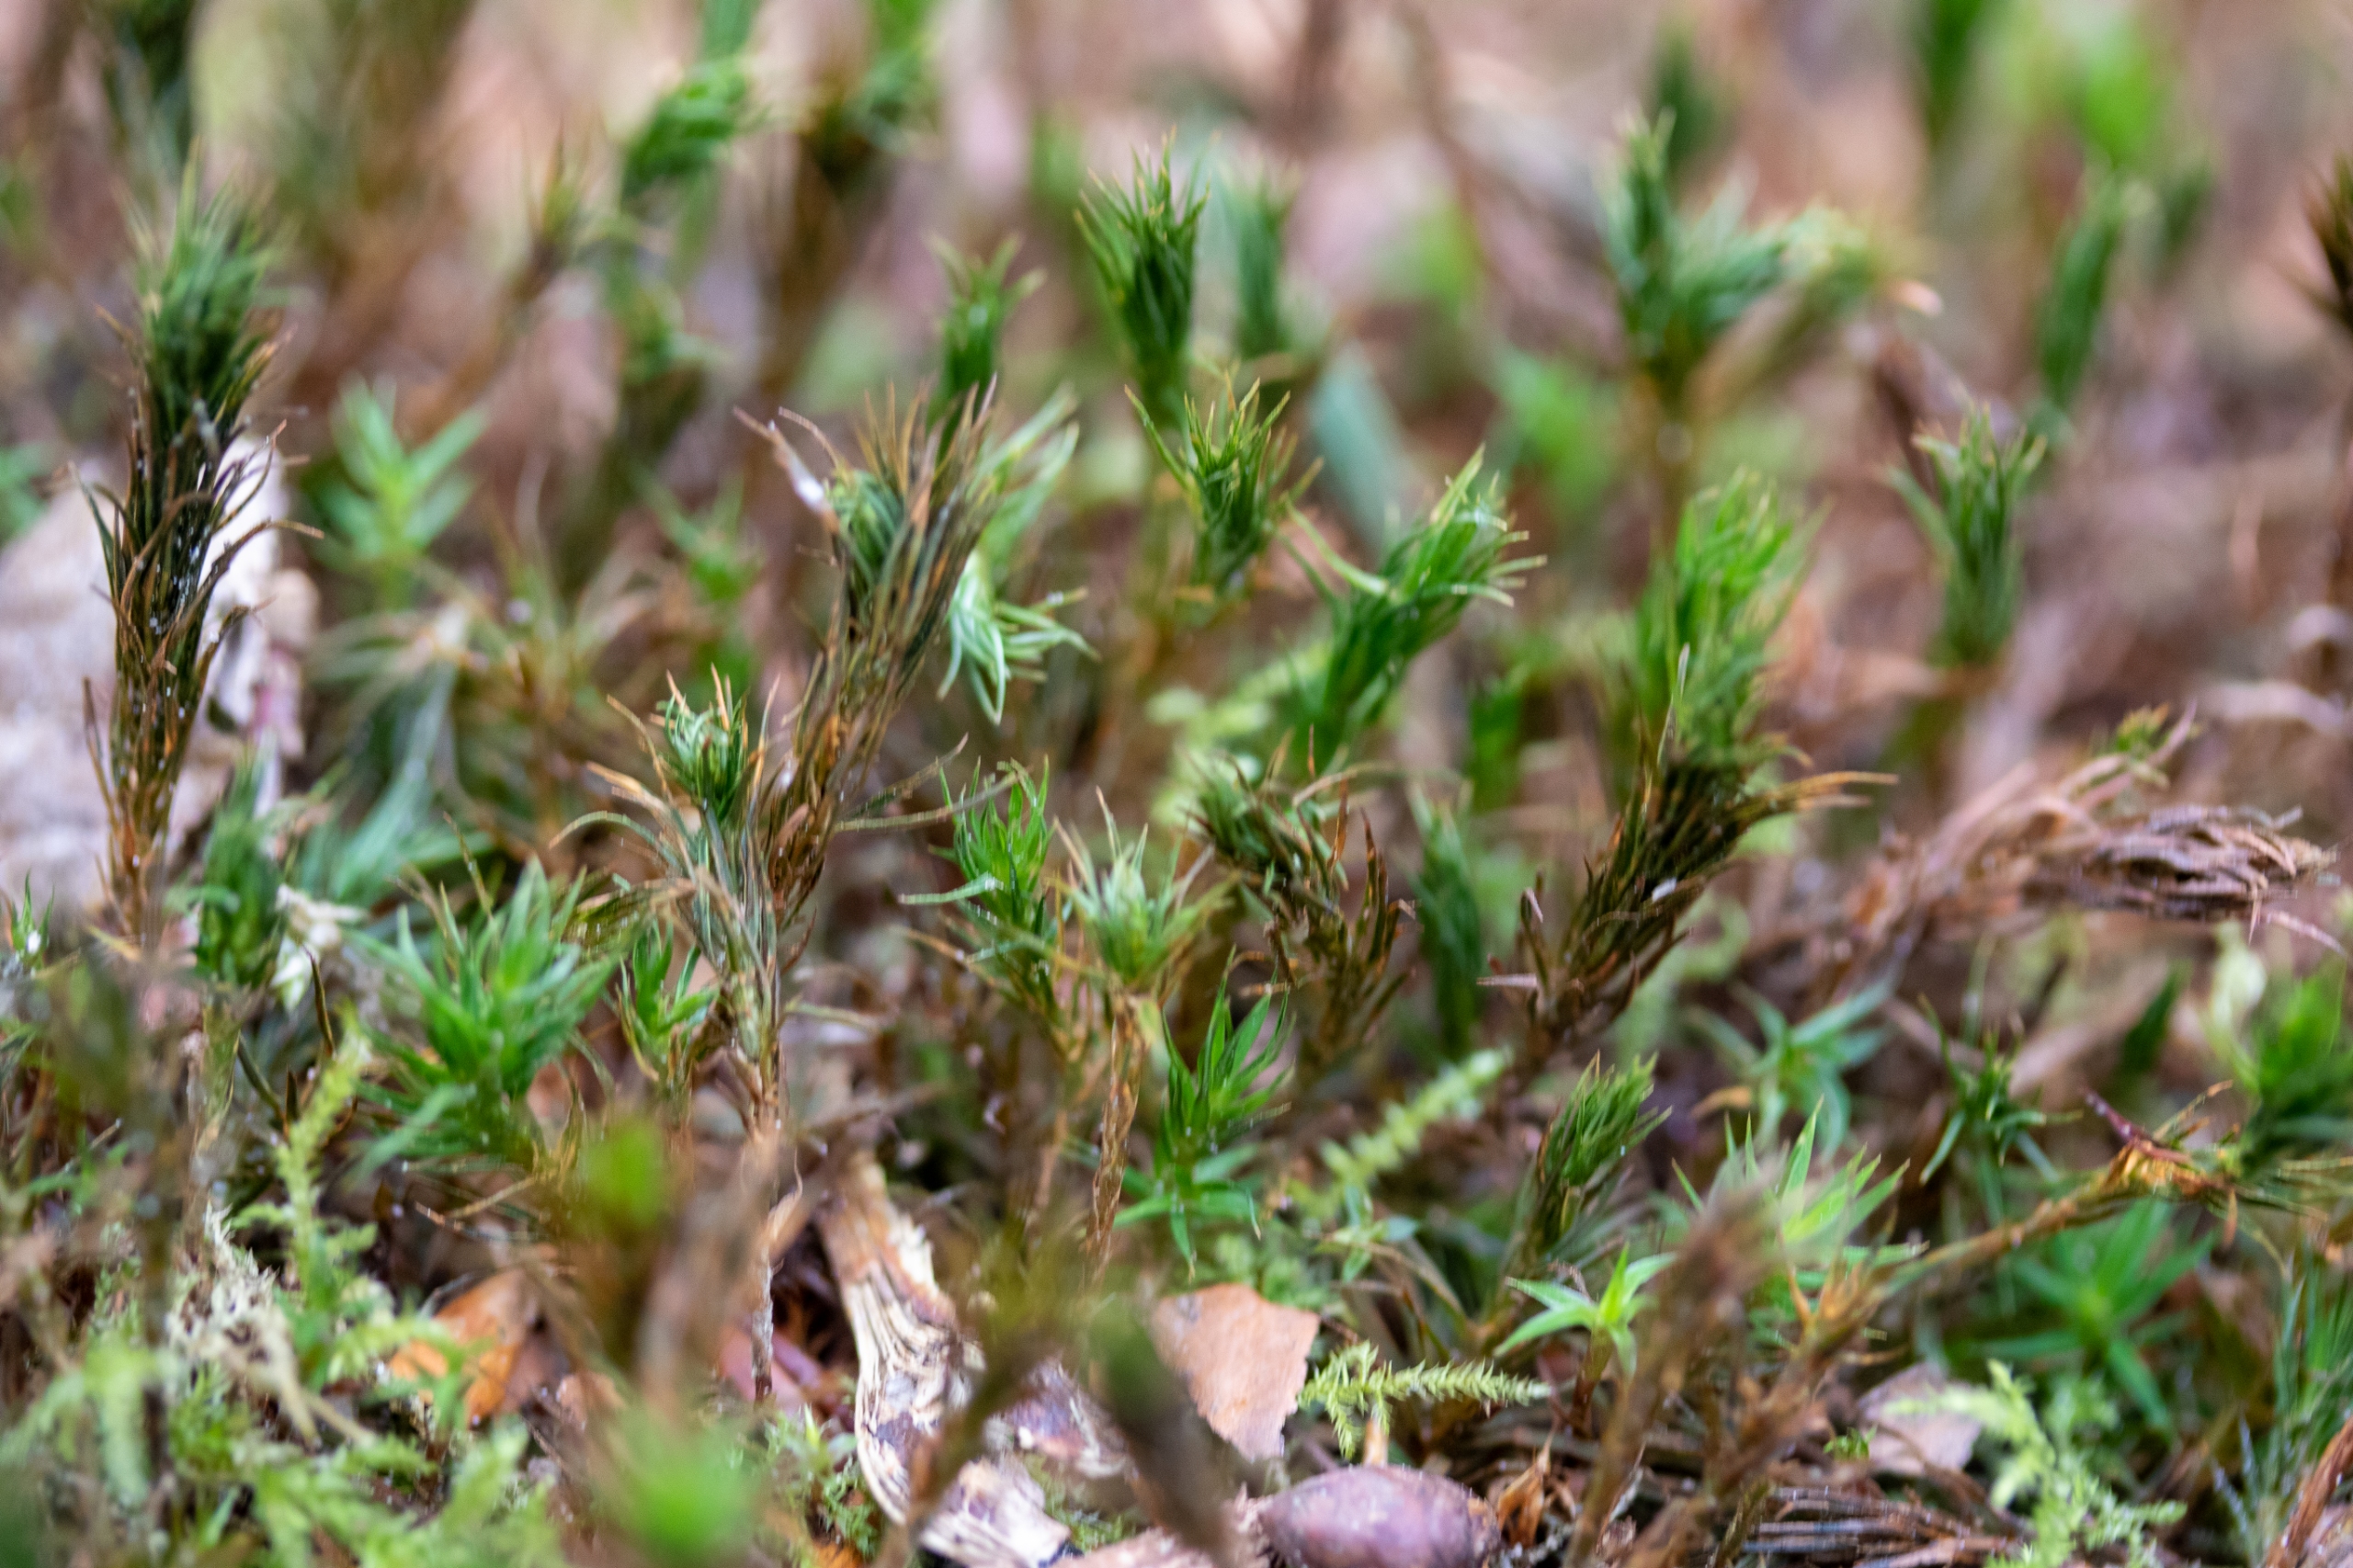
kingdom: Plantae
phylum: Bryophyta
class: Polytrichopsida
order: Polytrichales
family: Polytrichaceae
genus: Polytrichum
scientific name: Polytrichum formosum
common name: Skov-jomfruhår
